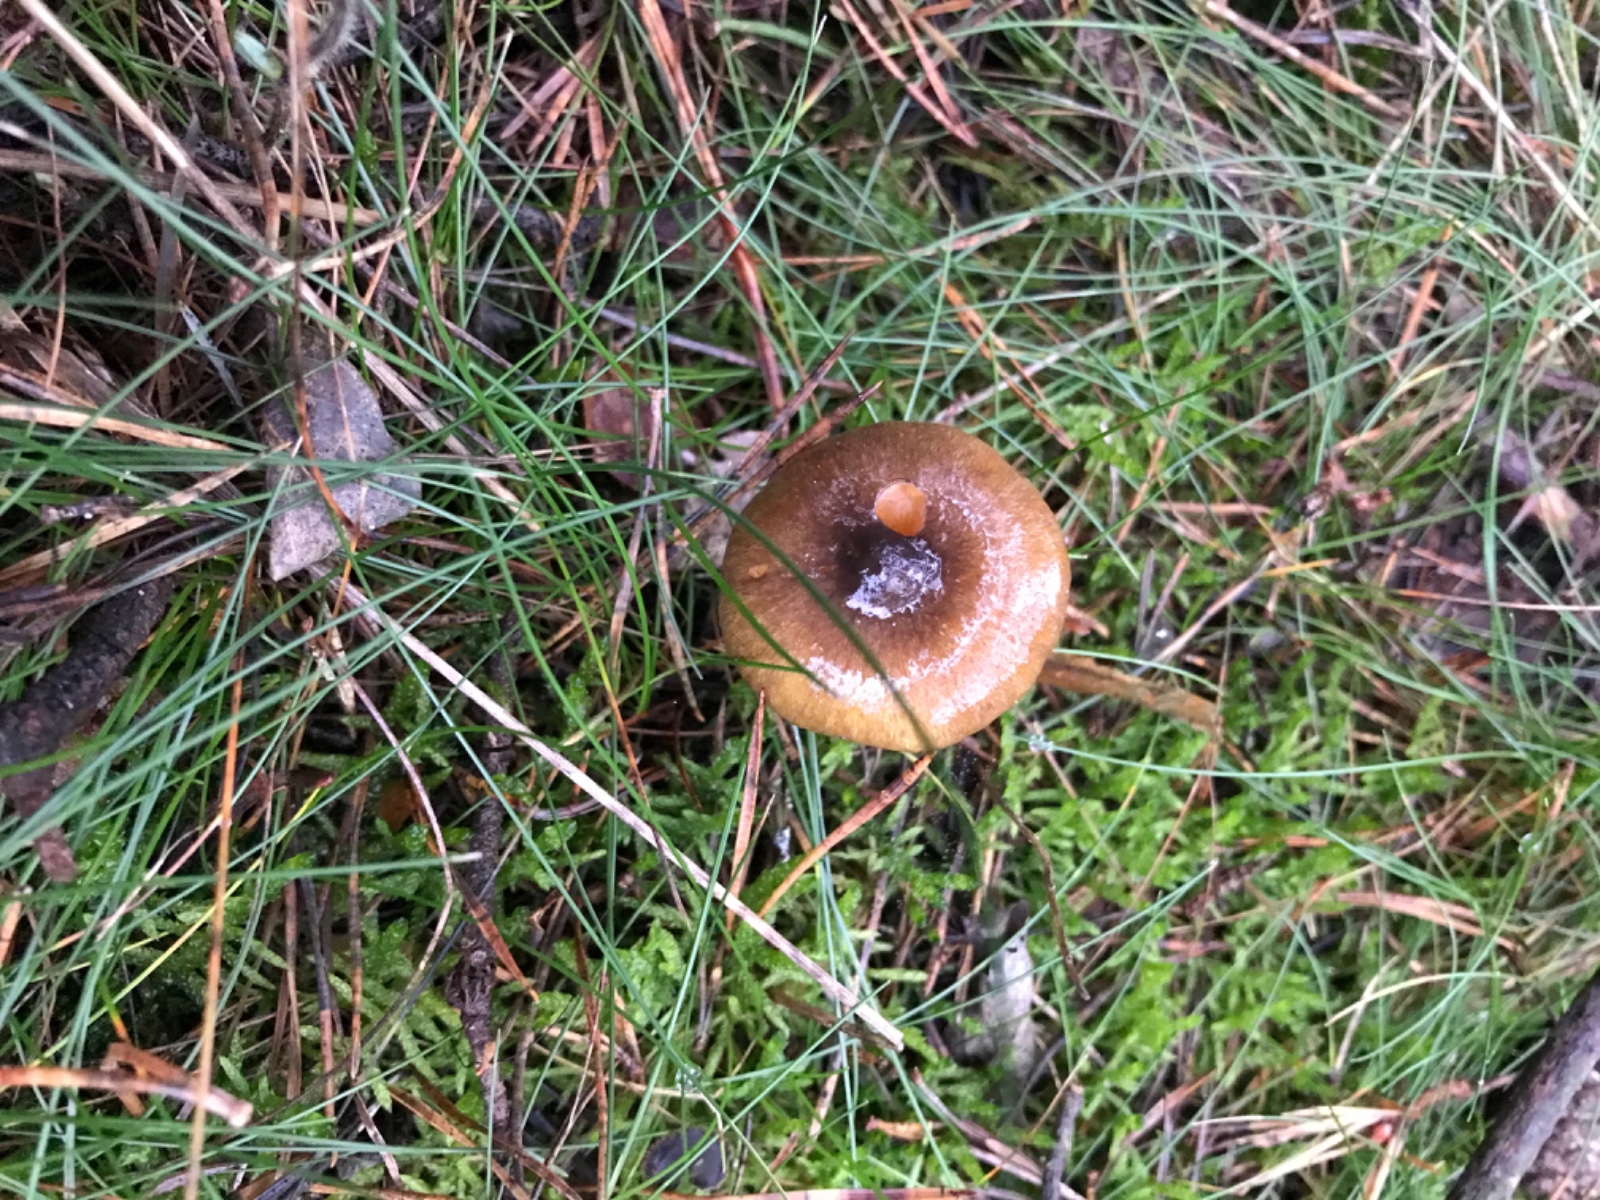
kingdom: Fungi
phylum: Basidiomycota
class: Agaricomycetes
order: Agaricales
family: Hygrophoraceae
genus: Hygrophorus
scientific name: Hygrophorus hypothejus
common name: frost-sneglehat
